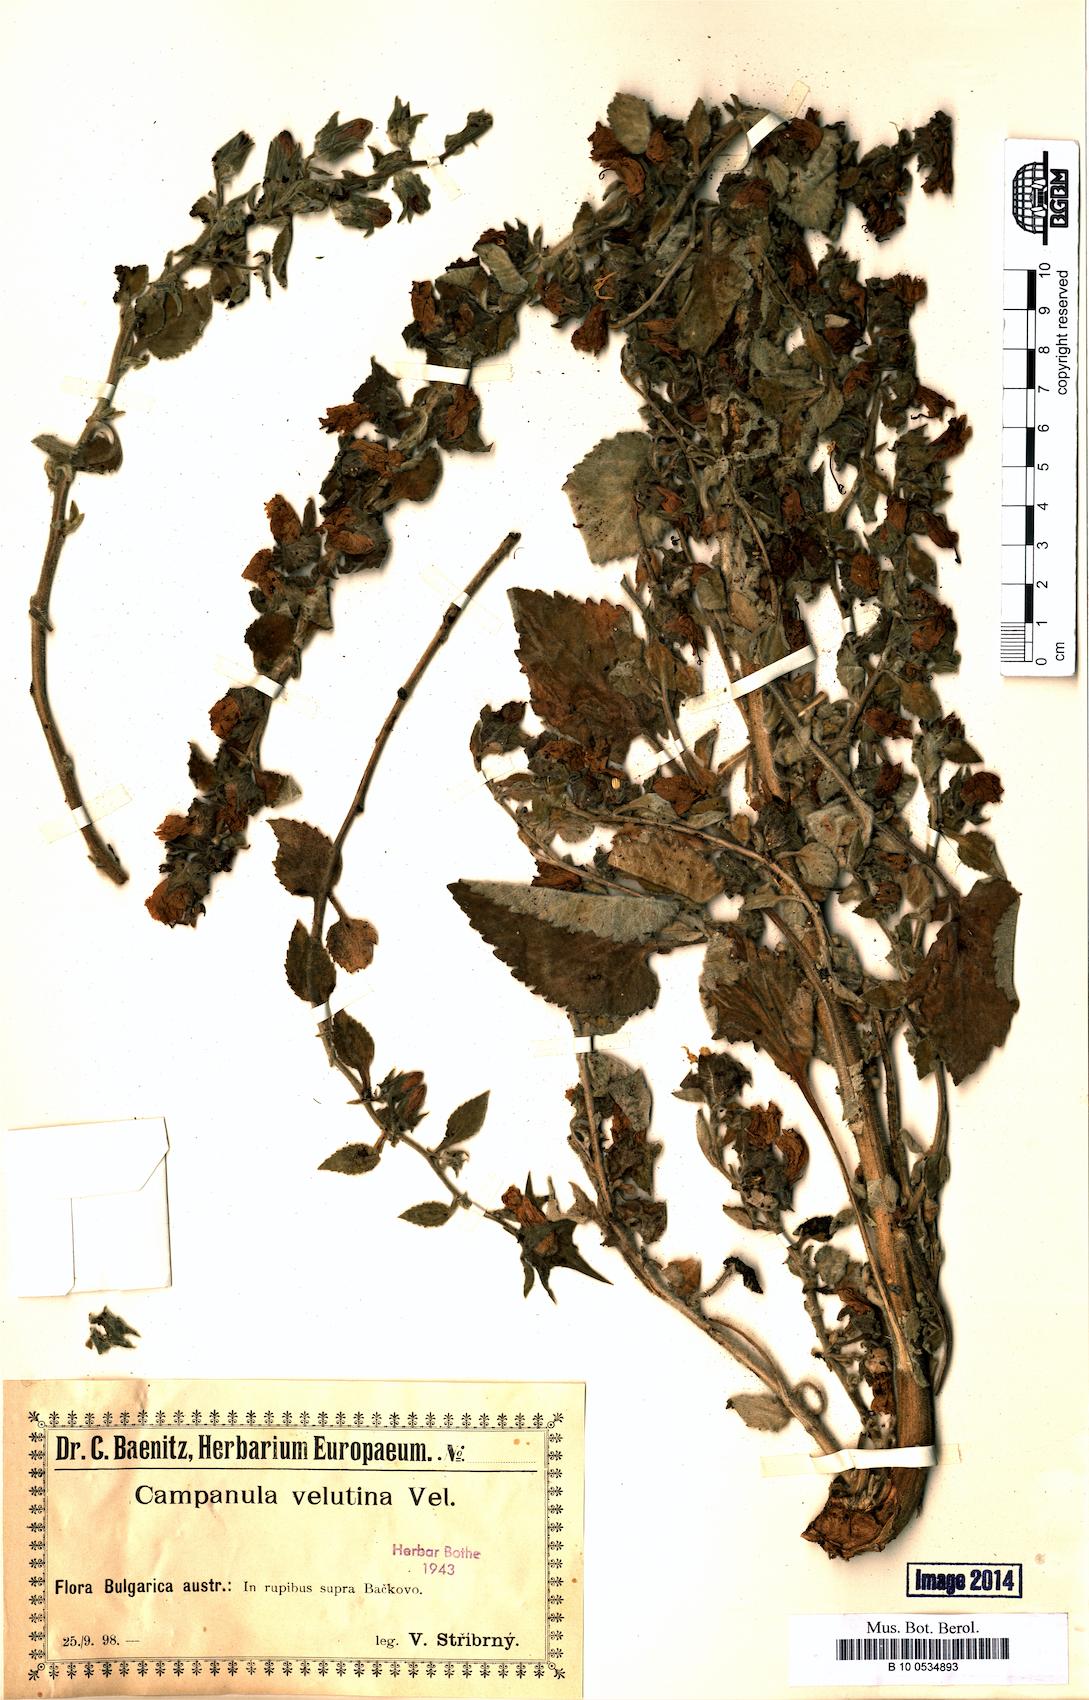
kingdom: Plantae
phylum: Tracheophyta
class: Magnoliopsida
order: Asterales
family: Campanulaceae
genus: Campanula
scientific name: Campanula lanata
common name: Woolly bellflower
